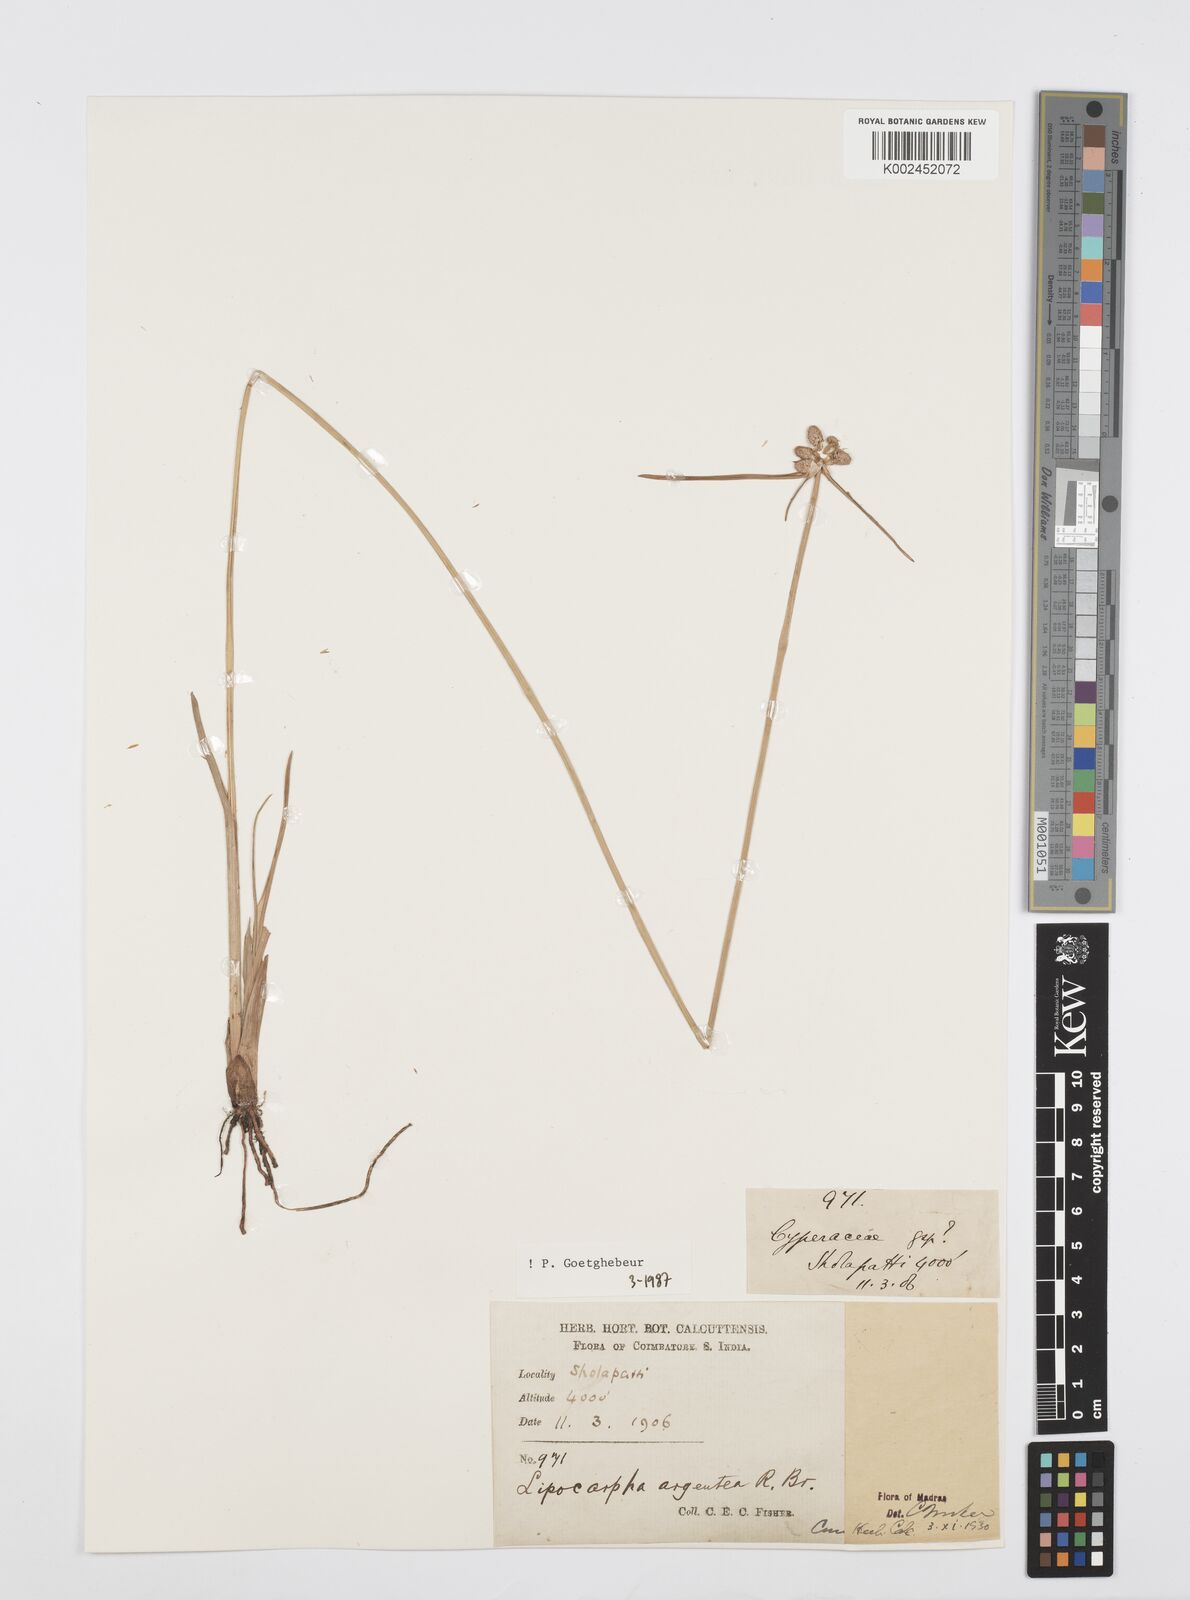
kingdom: Plantae
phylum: Tracheophyta
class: Liliopsida
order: Poales
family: Cyperaceae
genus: Cyperus
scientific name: Cyperus
